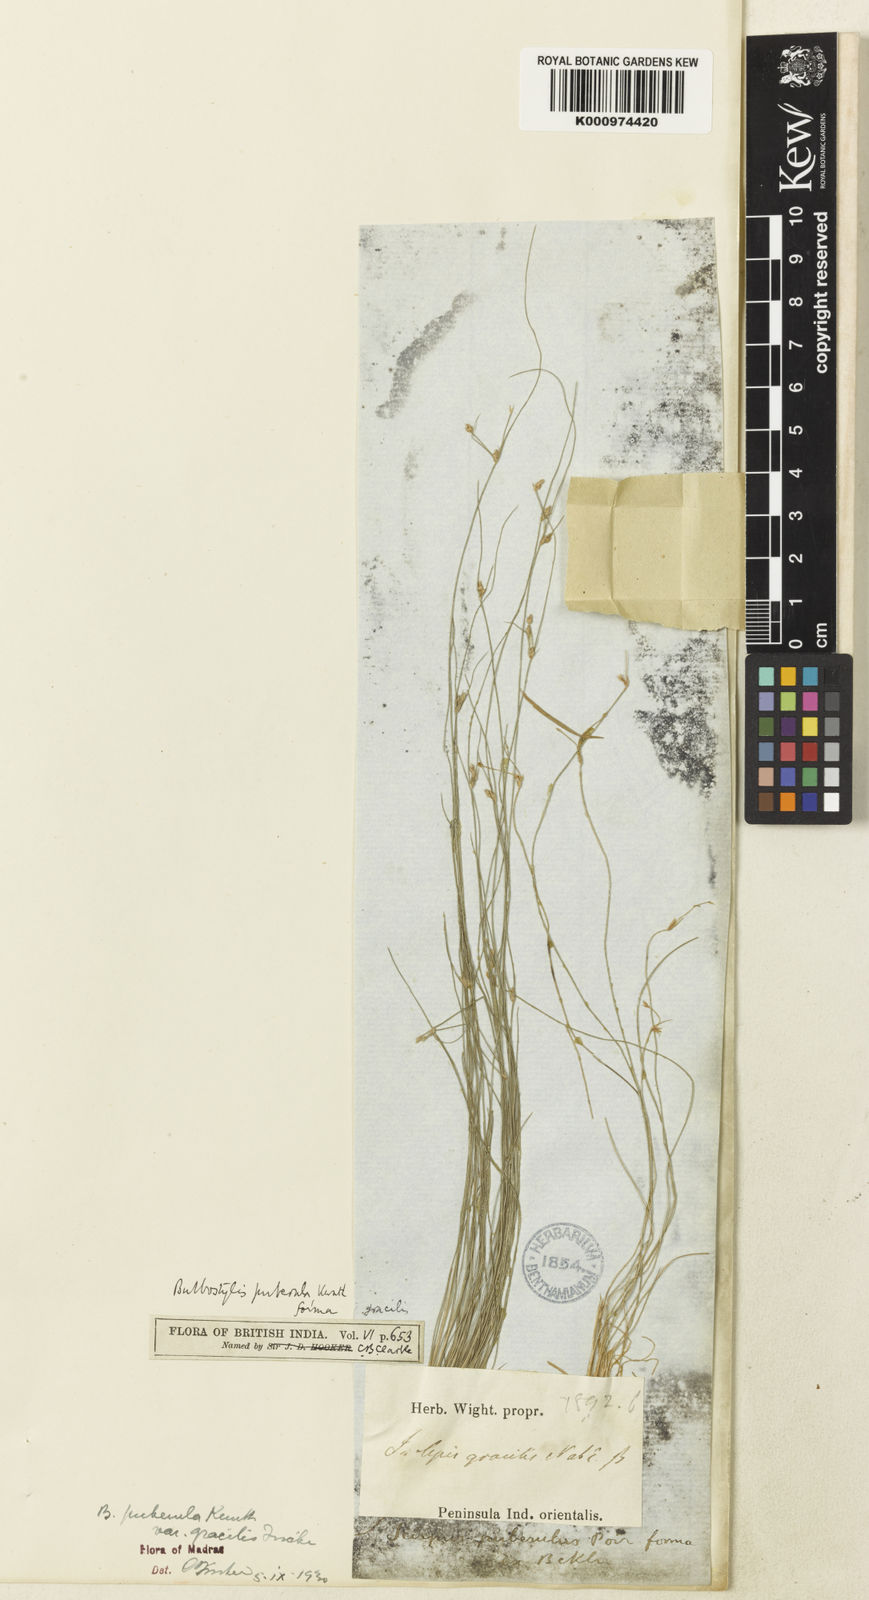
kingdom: Plantae
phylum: Tracheophyta
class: Liliopsida
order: Poales
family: Cyperaceae
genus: Bulbostylis
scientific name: Bulbostylis thouarsii
